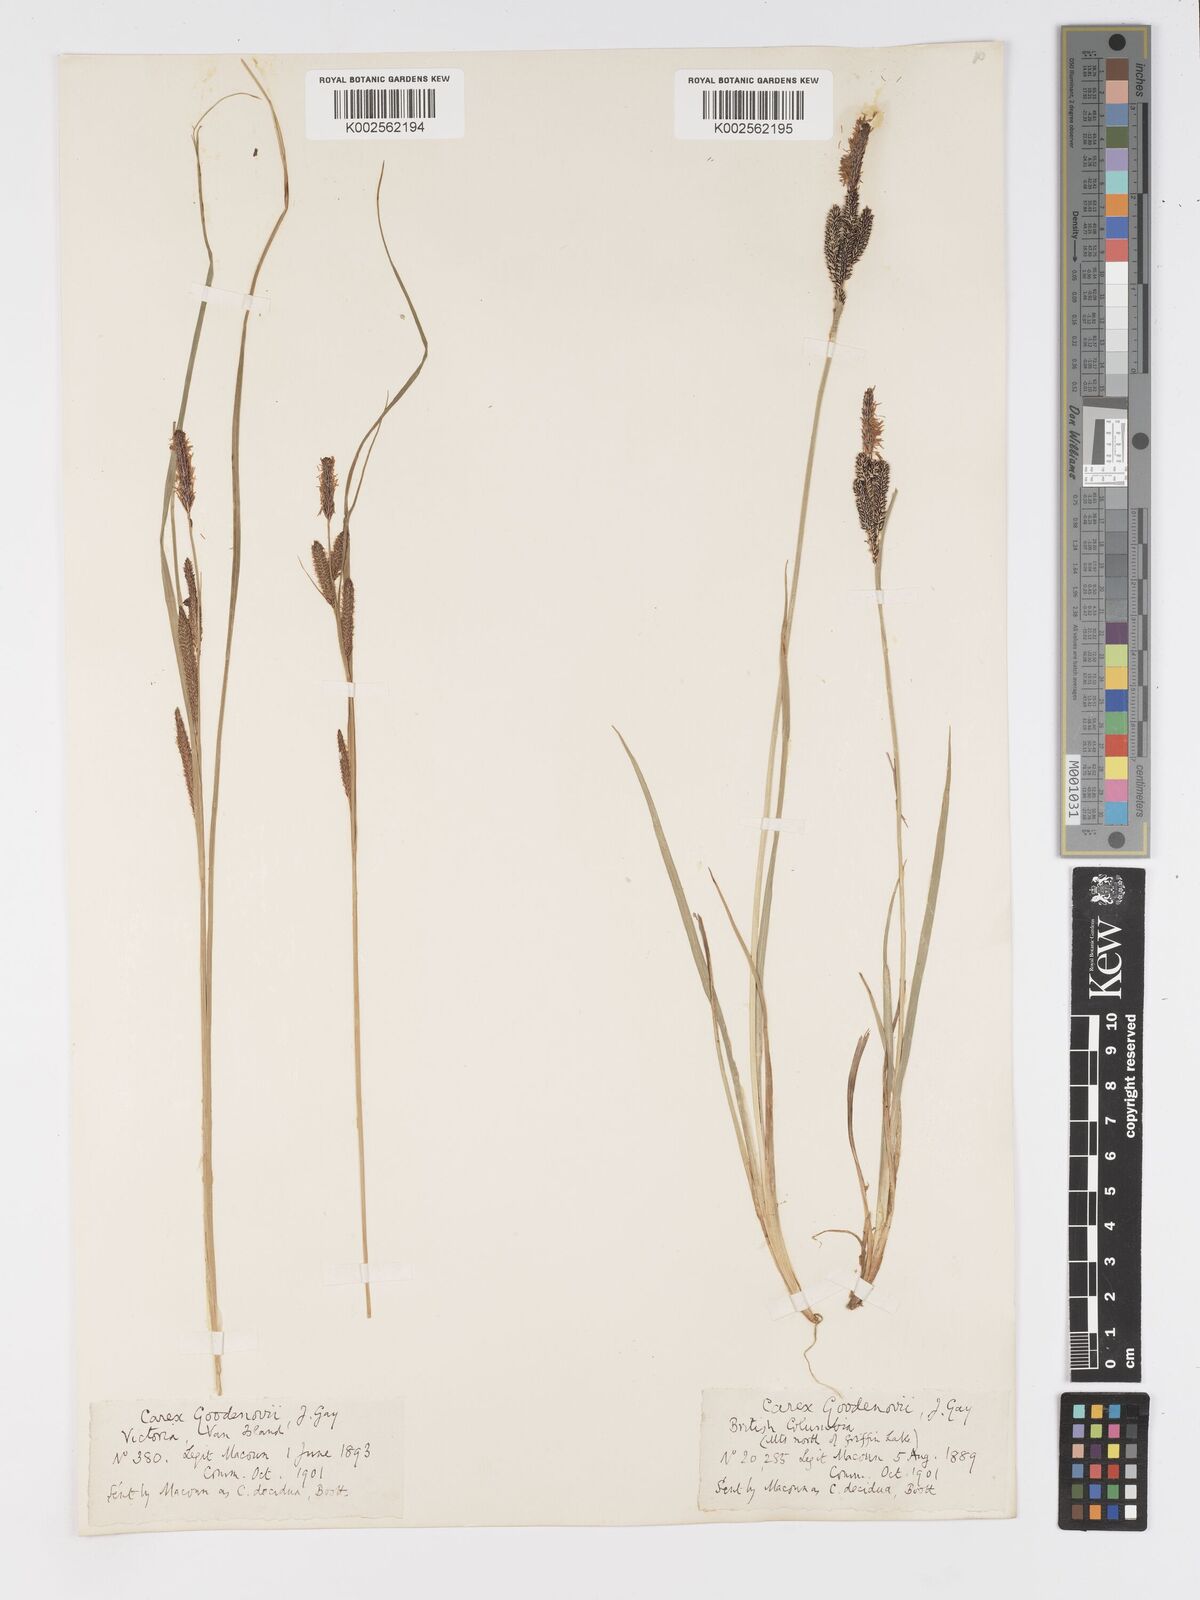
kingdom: Plantae
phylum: Tracheophyta
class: Liliopsida
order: Poales
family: Cyperaceae
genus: Carex
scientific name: Carex nigra
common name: Common sedge
